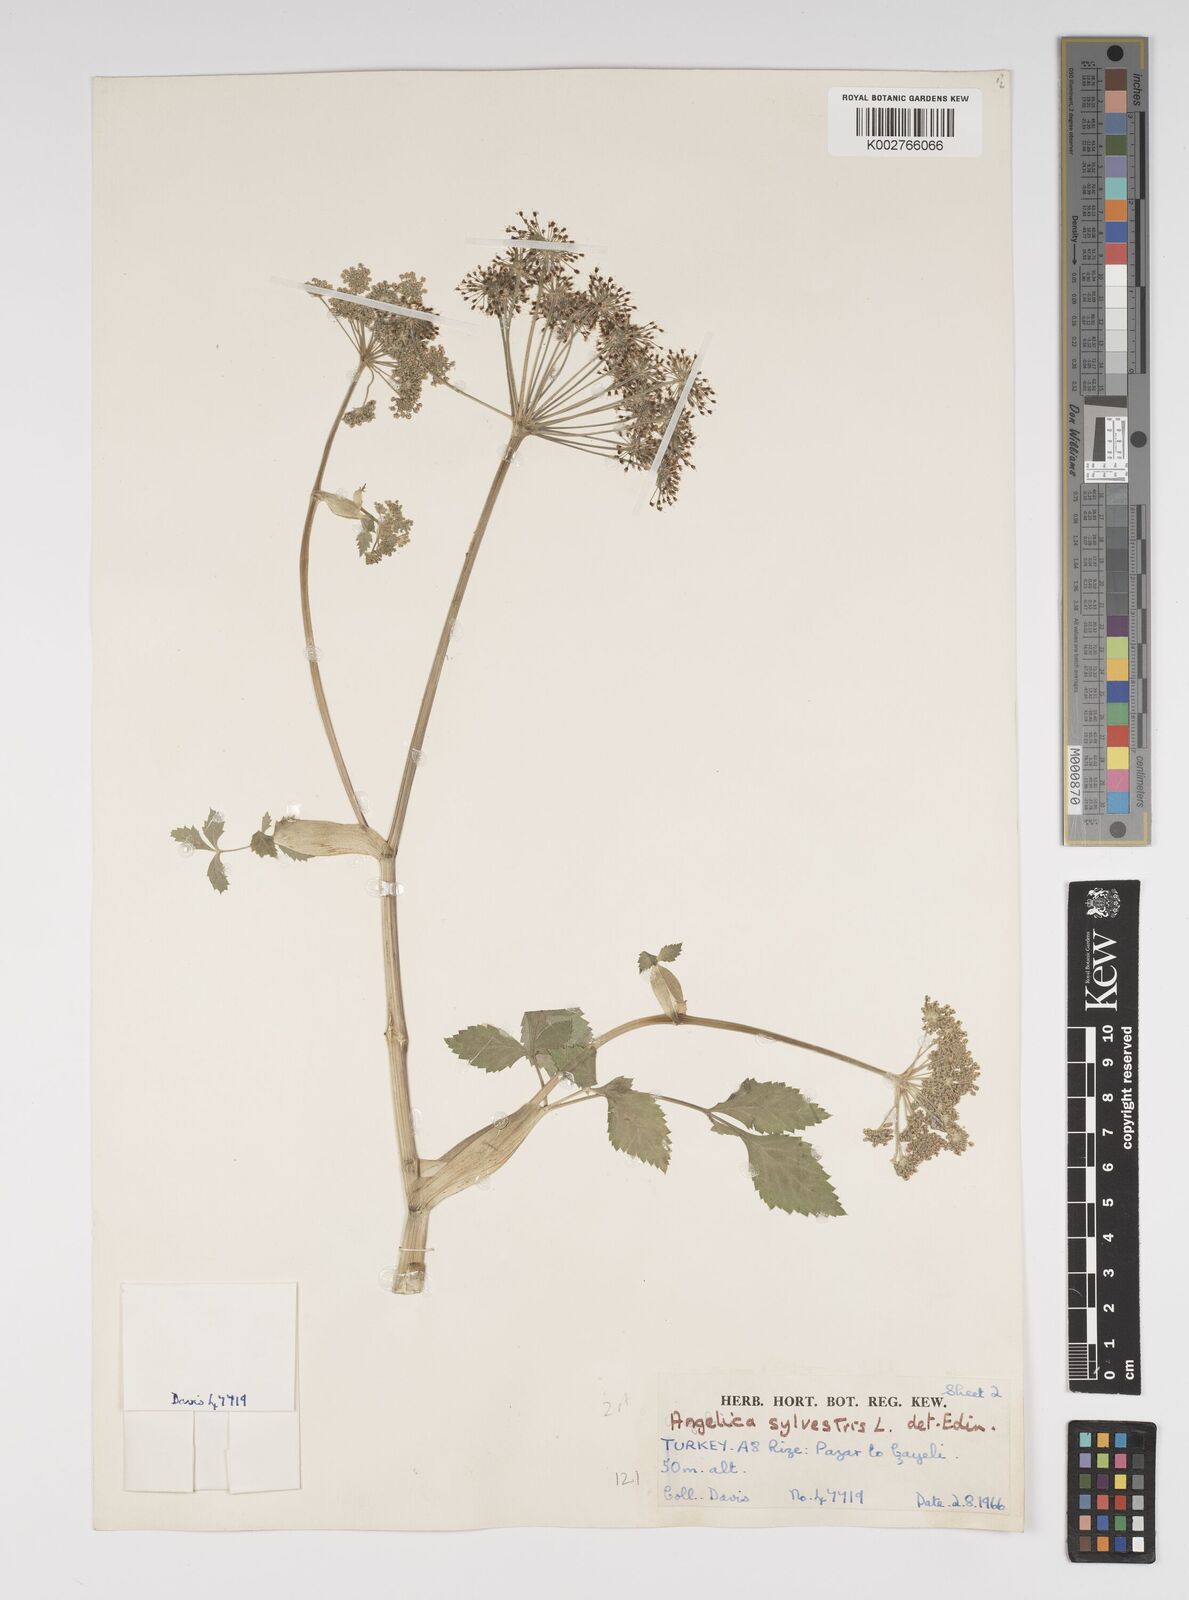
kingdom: Plantae
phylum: Tracheophyta
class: Magnoliopsida
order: Apiales
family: Apiaceae
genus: Angelica
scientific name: Angelica sylvestris
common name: Wild angelica
